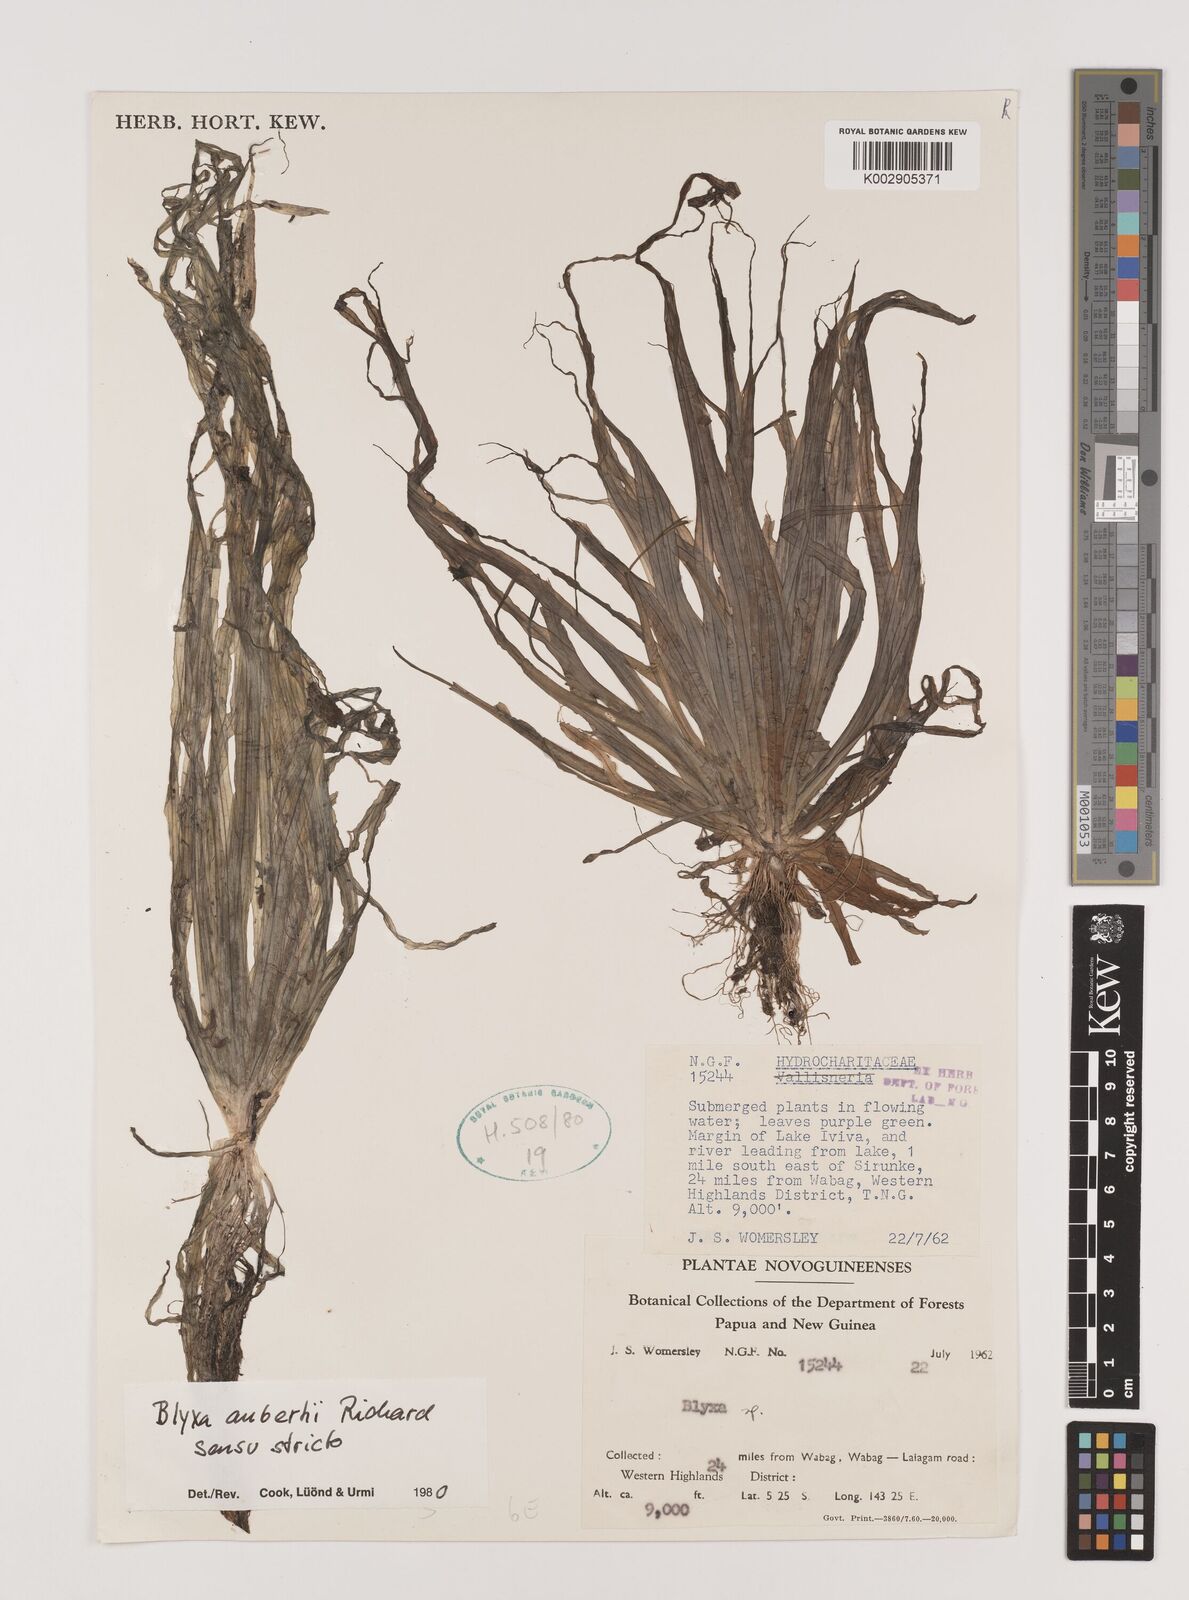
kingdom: Plantae
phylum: Tracheophyta
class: Liliopsida
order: Alismatales
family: Hydrocharitaceae
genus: Blyxa
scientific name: Blyxa aubertii
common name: Roundfruit blyxa
